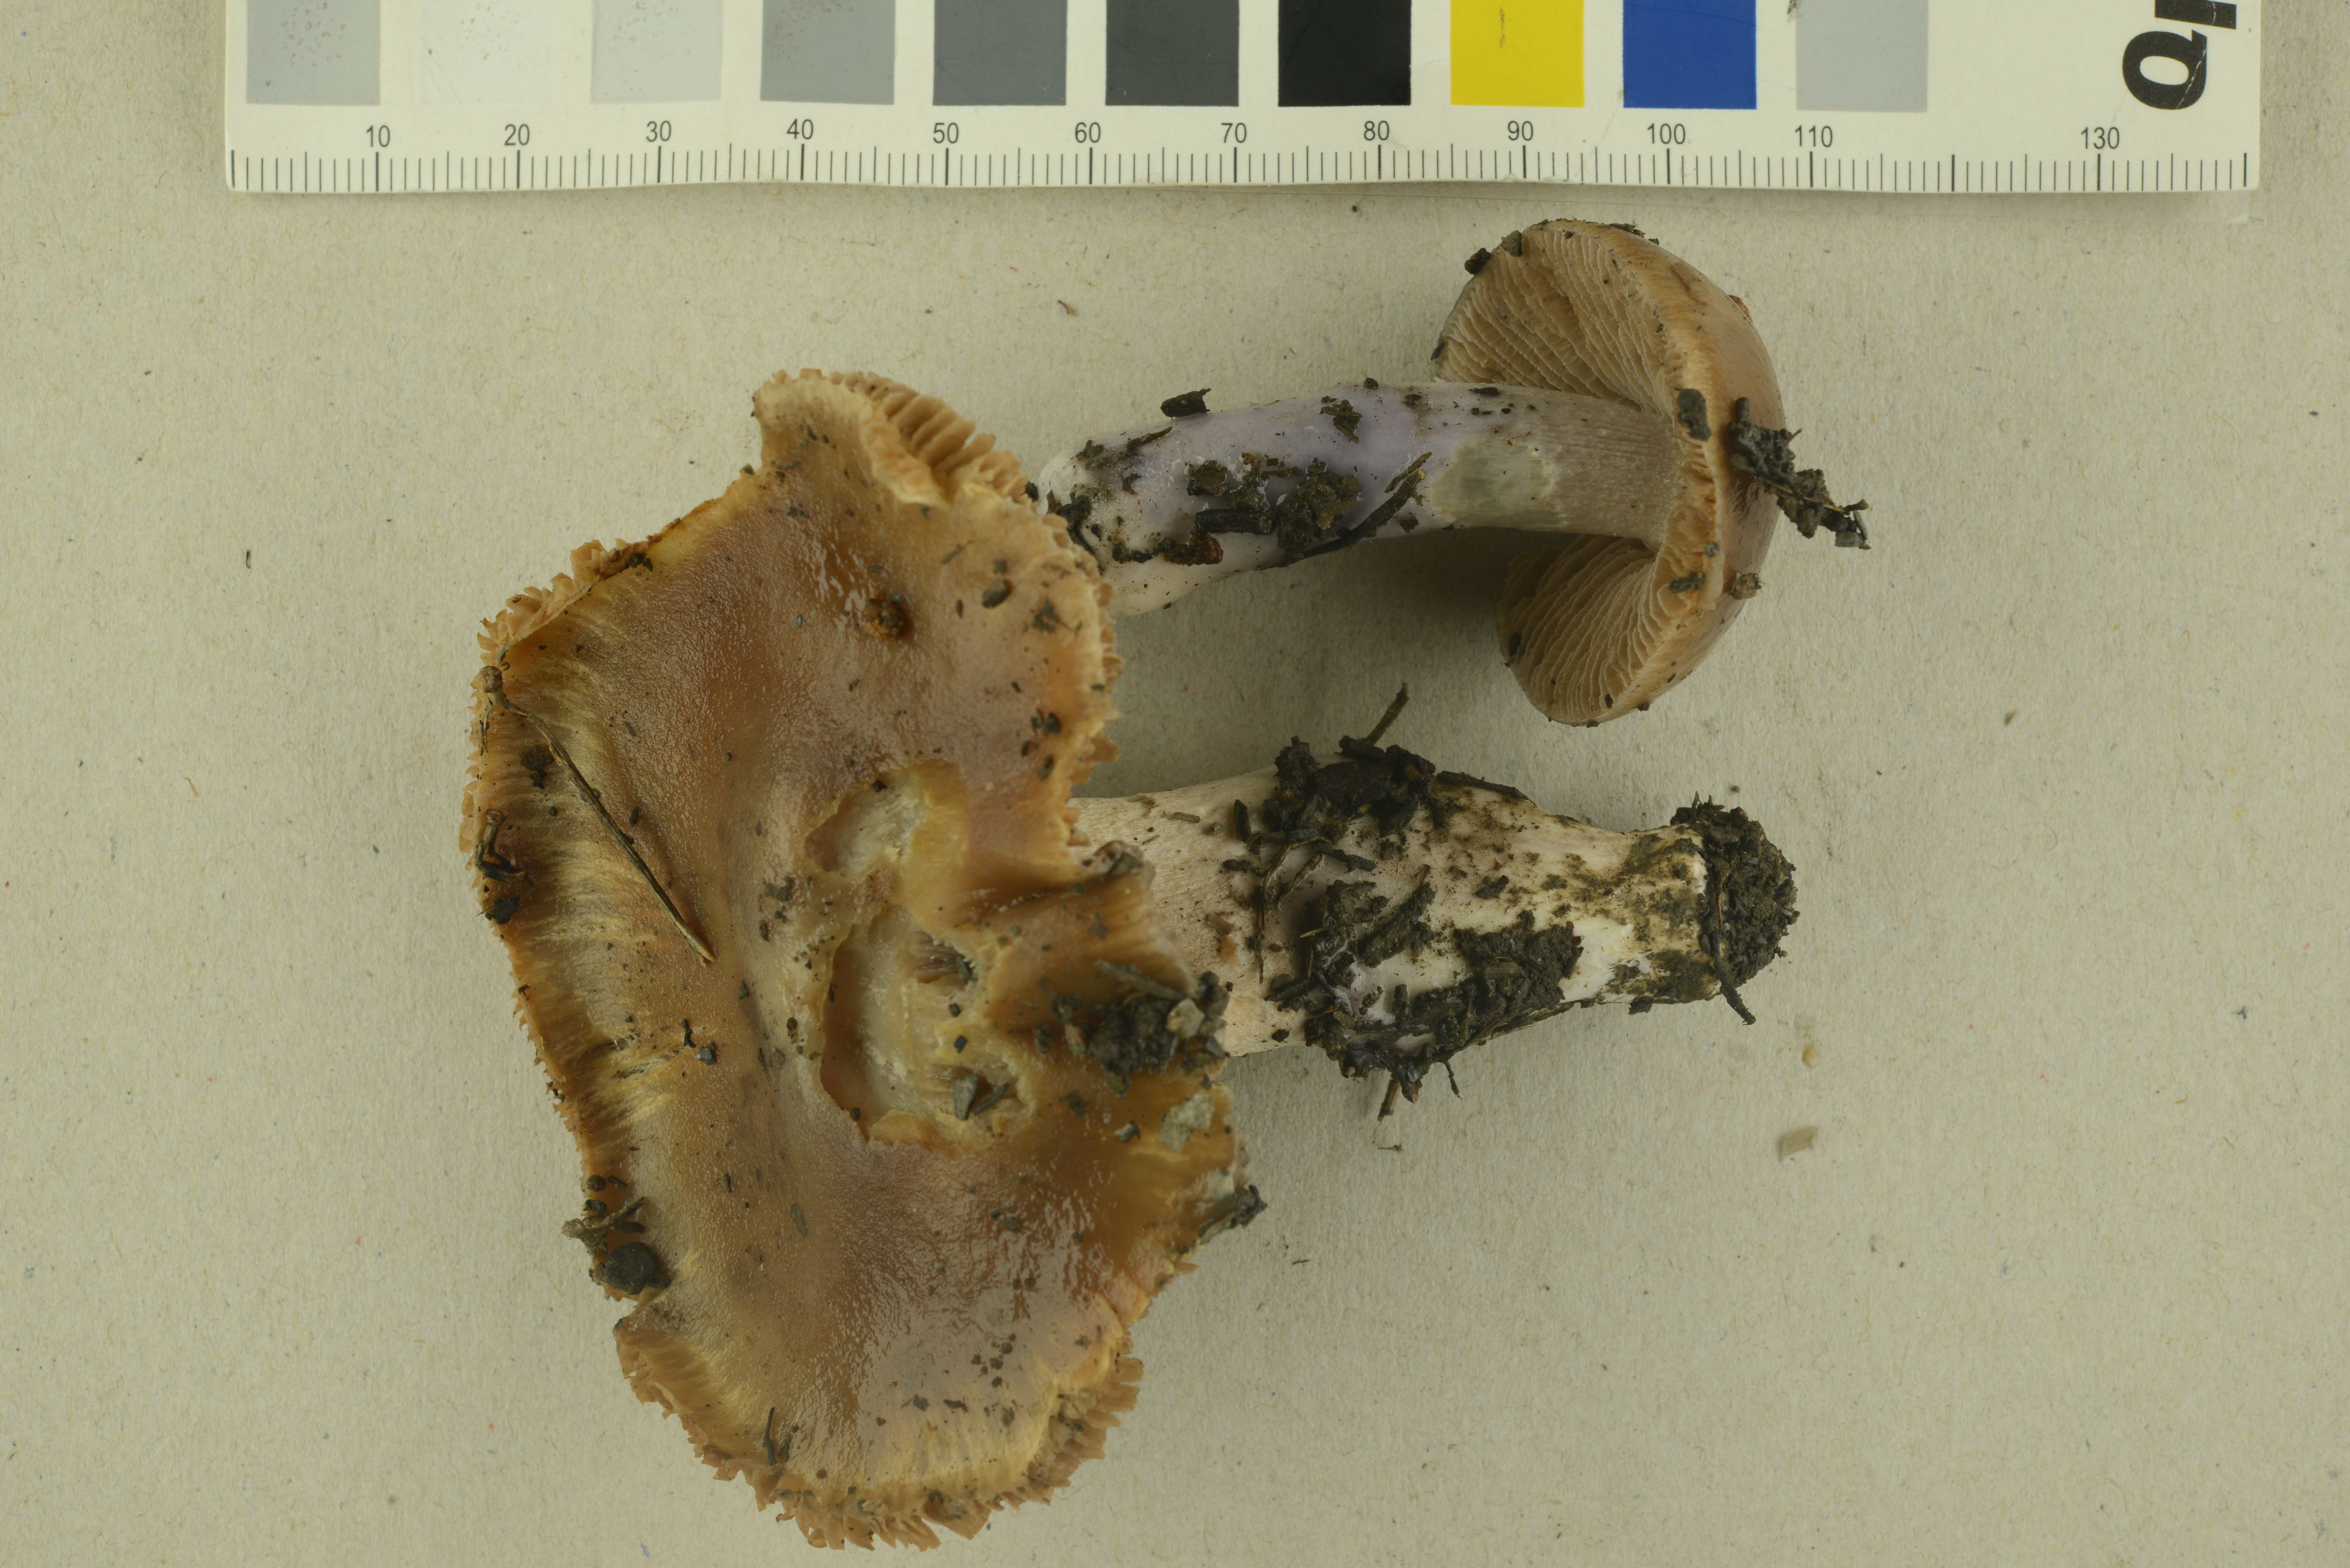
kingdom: Fungi
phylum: Basidiomycota
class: Agaricomycetes
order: Agaricales
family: Cortinariaceae
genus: Cortinarius
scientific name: Cortinarius elatior
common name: Tall webcap
